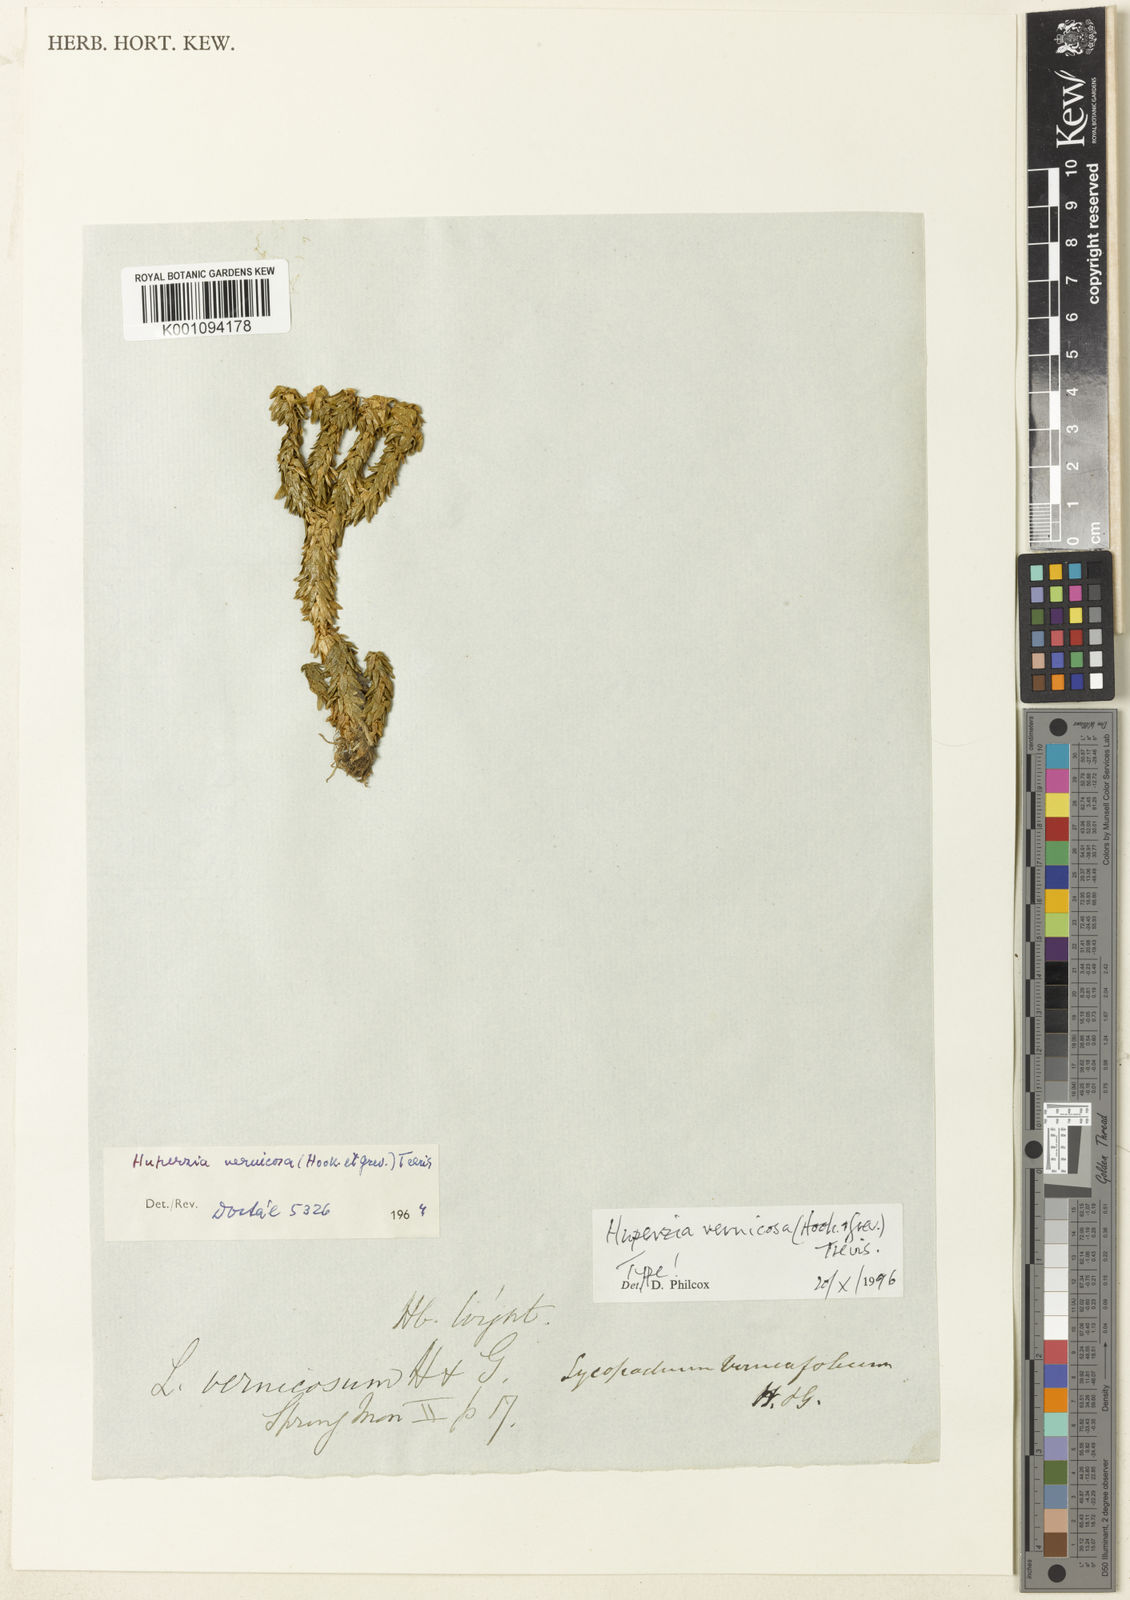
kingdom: Plantae
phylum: Tracheophyta
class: Lycopodiopsida
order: Lycopodiales
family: Lycopodiaceae
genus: Phlegmariurus
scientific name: Phlegmariurus squarrosus
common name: Rock tassel-fern
